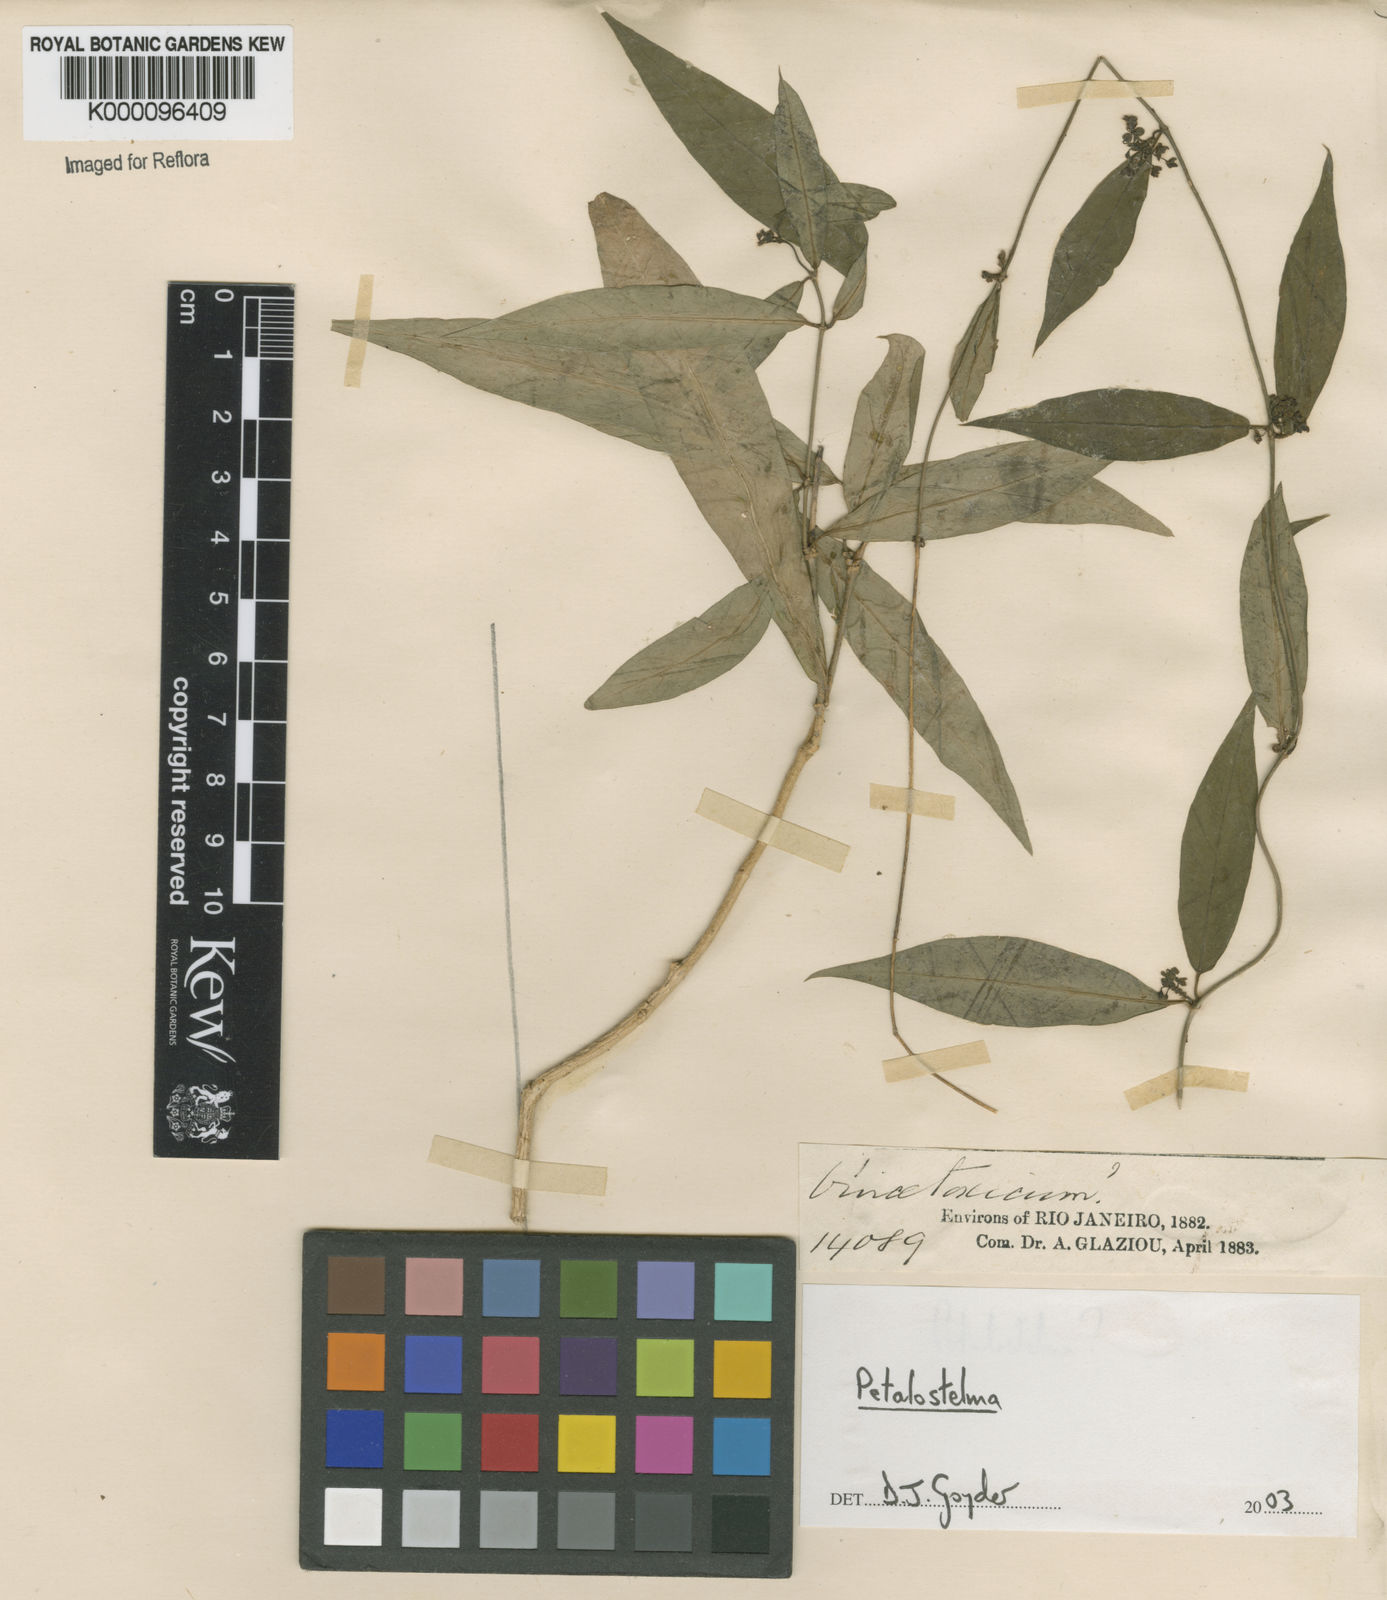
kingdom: Plantae
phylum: Tracheophyta
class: Magnoliopsida
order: Gentianales
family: Apocynaceae
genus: Petalostelma
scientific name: Petalostelma
